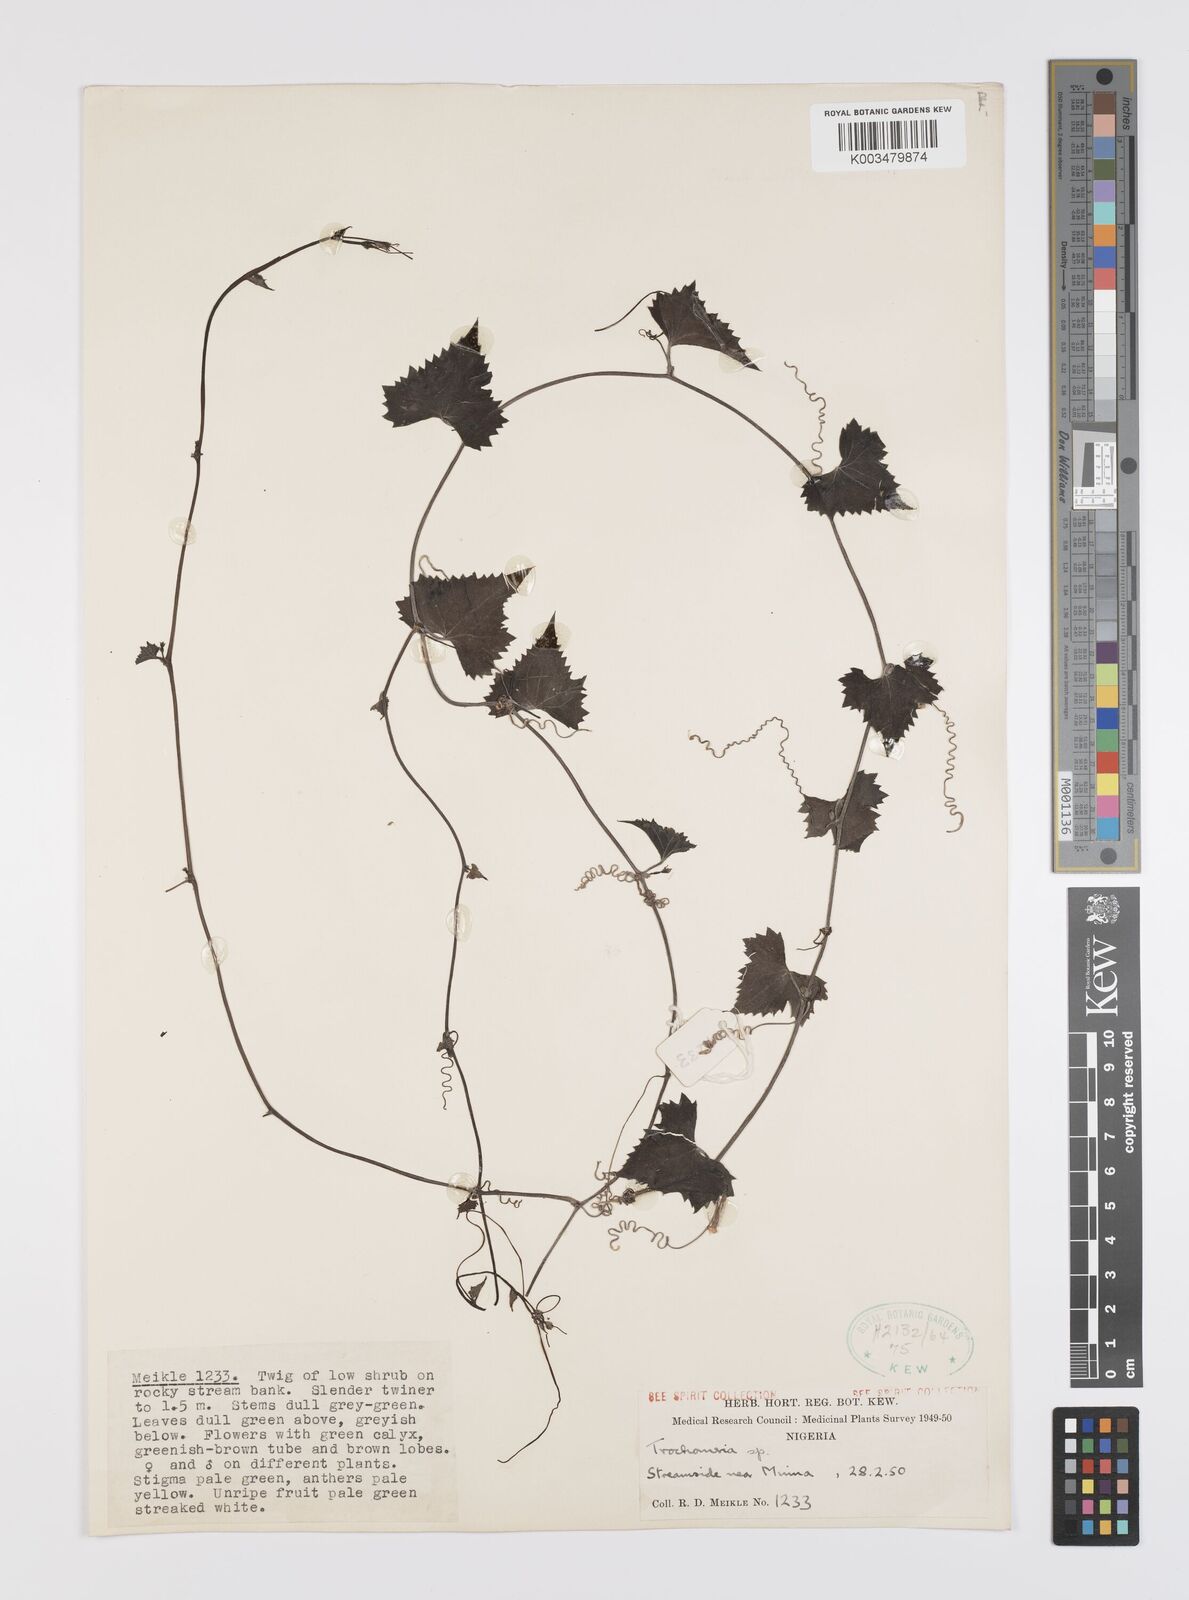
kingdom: Plantae
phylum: Tracheophyta
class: Magnoliopsida
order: Cucurbitales
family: Cucurbitaceae
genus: Trochomeria
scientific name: Trochomeria
